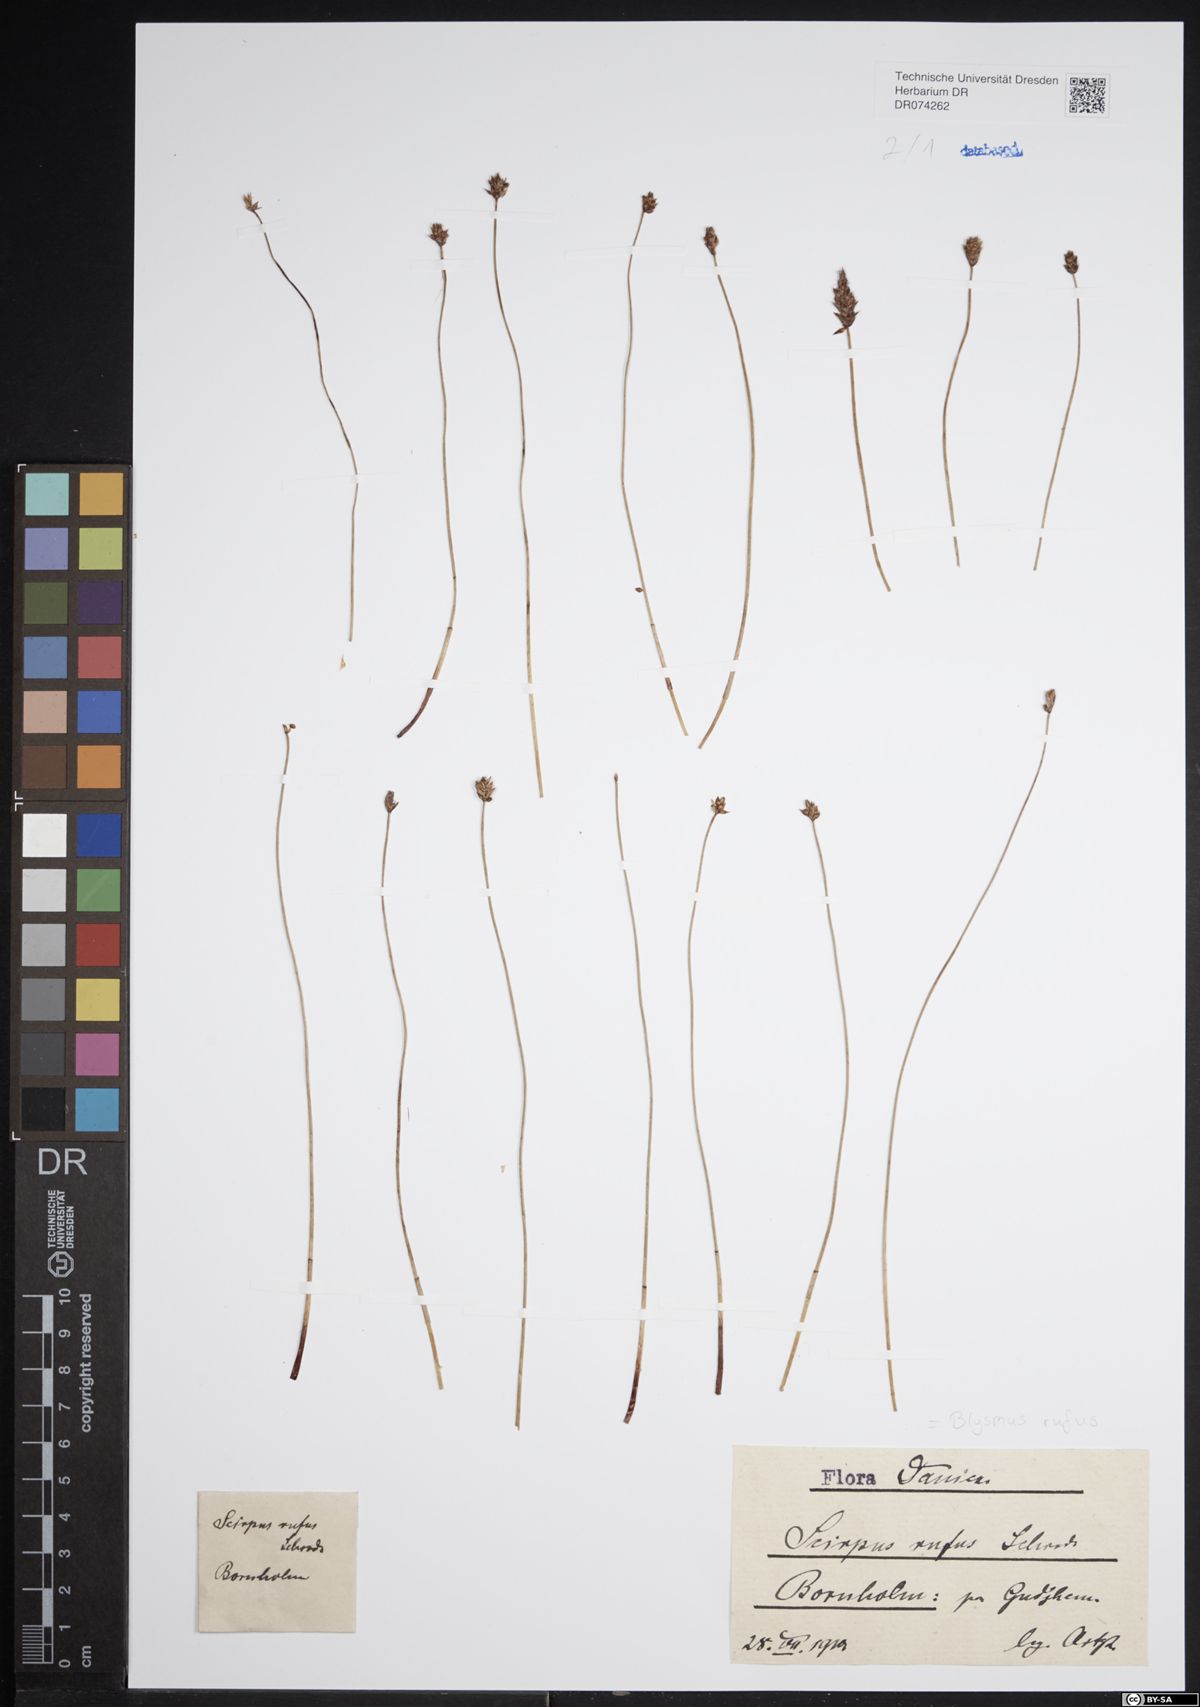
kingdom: Plantae
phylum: Tracheophyta
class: Liliopsida
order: Poales
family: Cyperaceae
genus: Blysmus
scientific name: Blysmus rufus
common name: Saltmarsh flat-sedge
